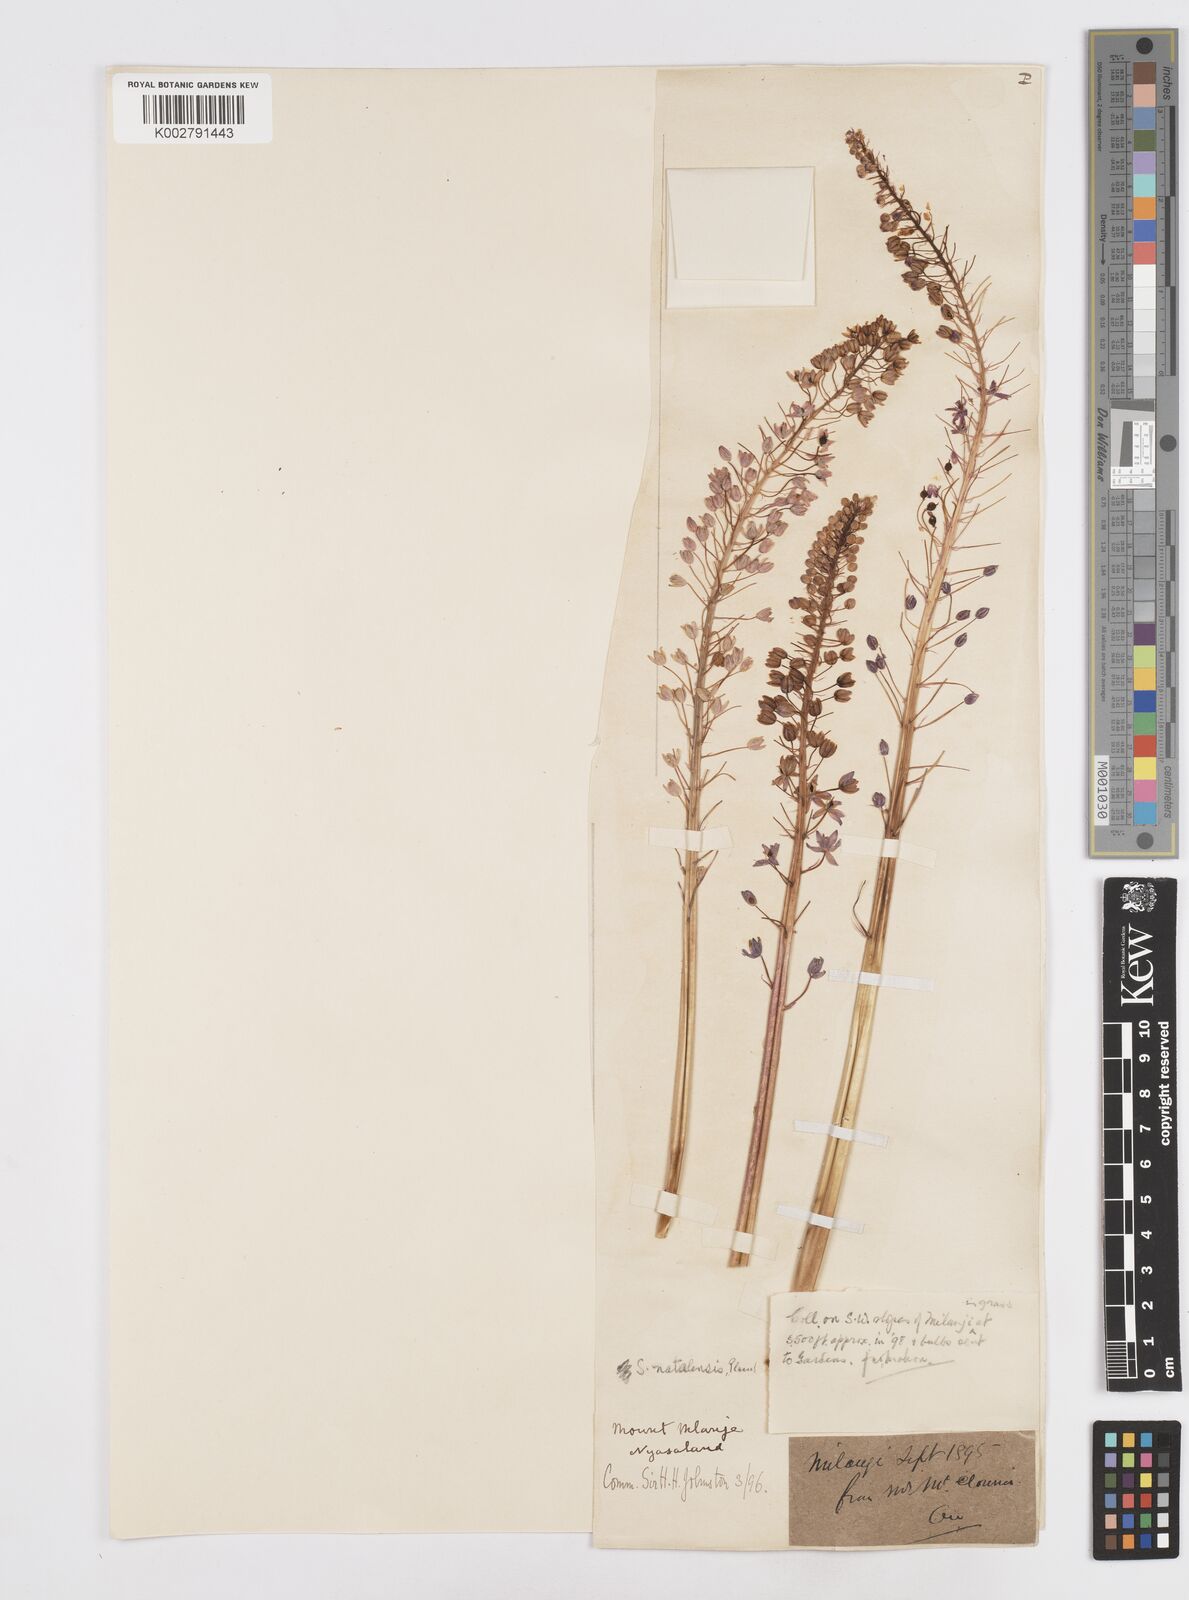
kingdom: Plantae
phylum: Tracheophyta
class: Liliopsida
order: Asparagales
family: Asparagaceae
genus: Merwilla
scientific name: Merwilla plumbea
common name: Blue-squill
